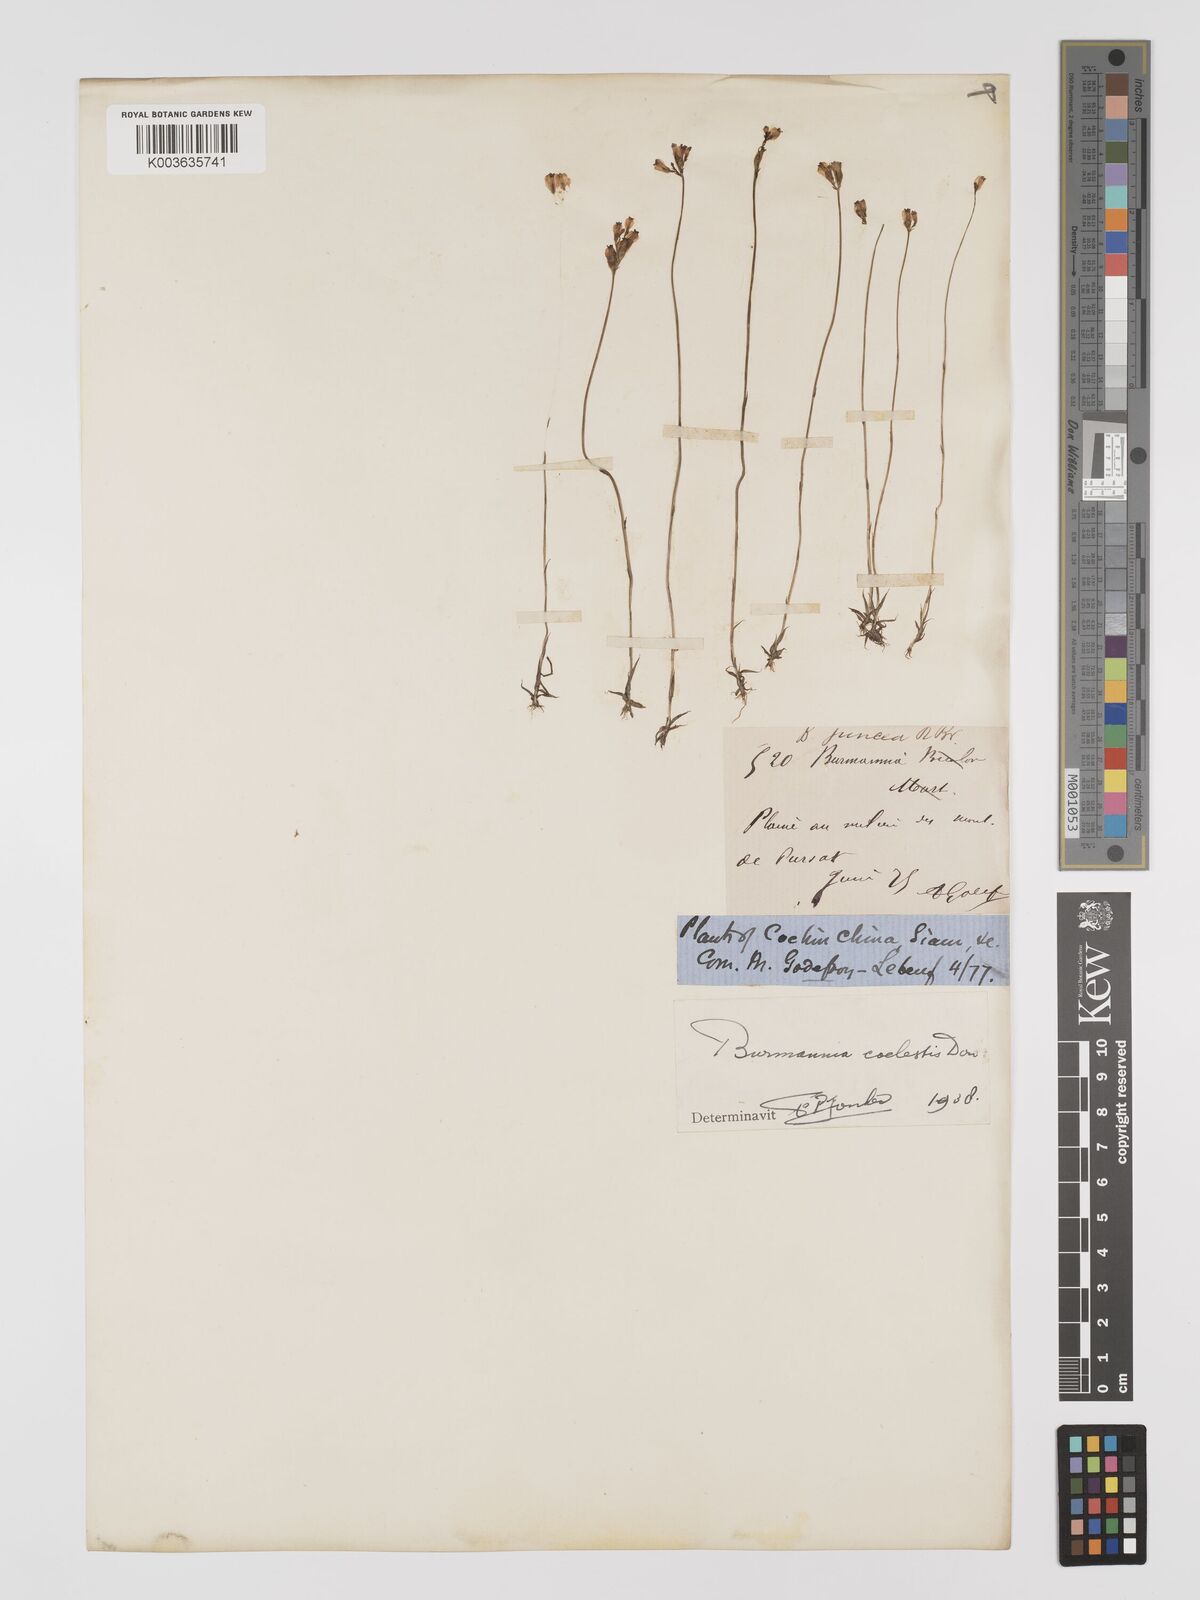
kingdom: Plantae
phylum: Tracheophyta
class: Liliopsida
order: Dioscoreales
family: Burmanniaceae
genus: Burmannia
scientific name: Burmannia coelestis
